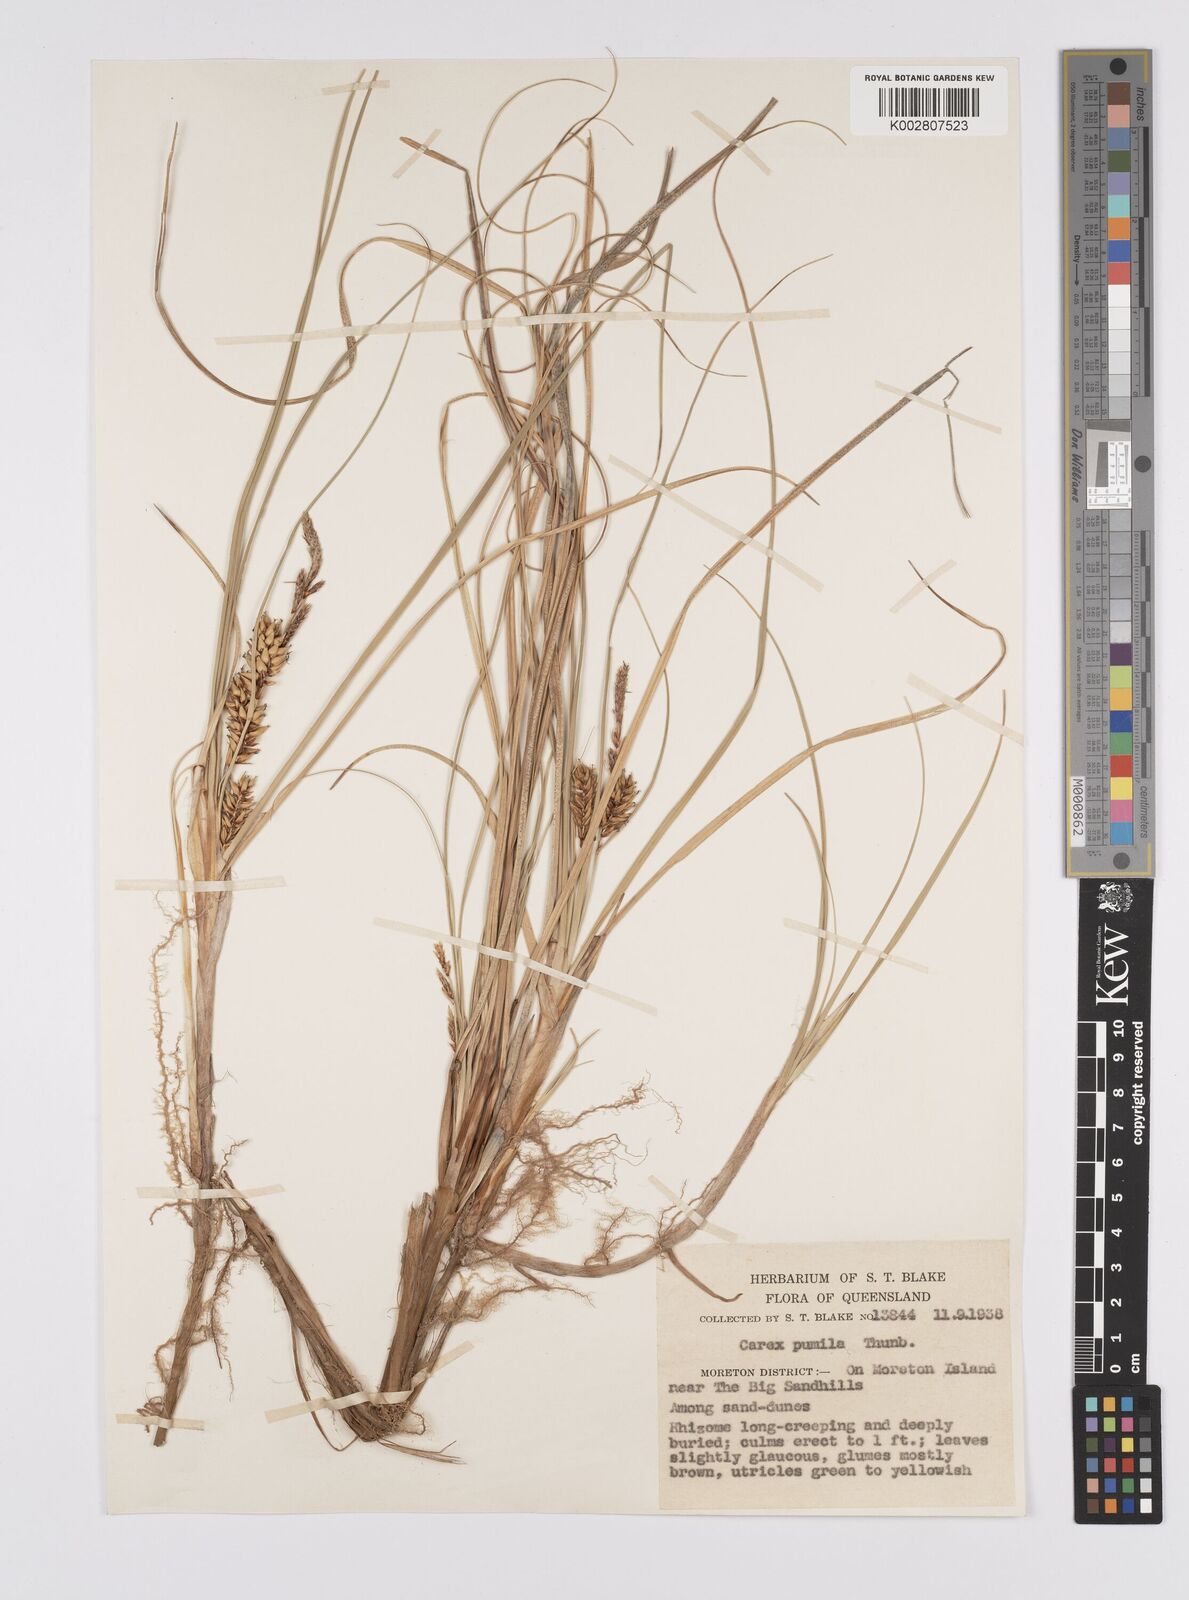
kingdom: Plantae
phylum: Tracheophyta
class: Liliopsida
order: Poales
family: Cyperaceae
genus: Carex
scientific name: Carex pumila
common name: Dwarf sedge
